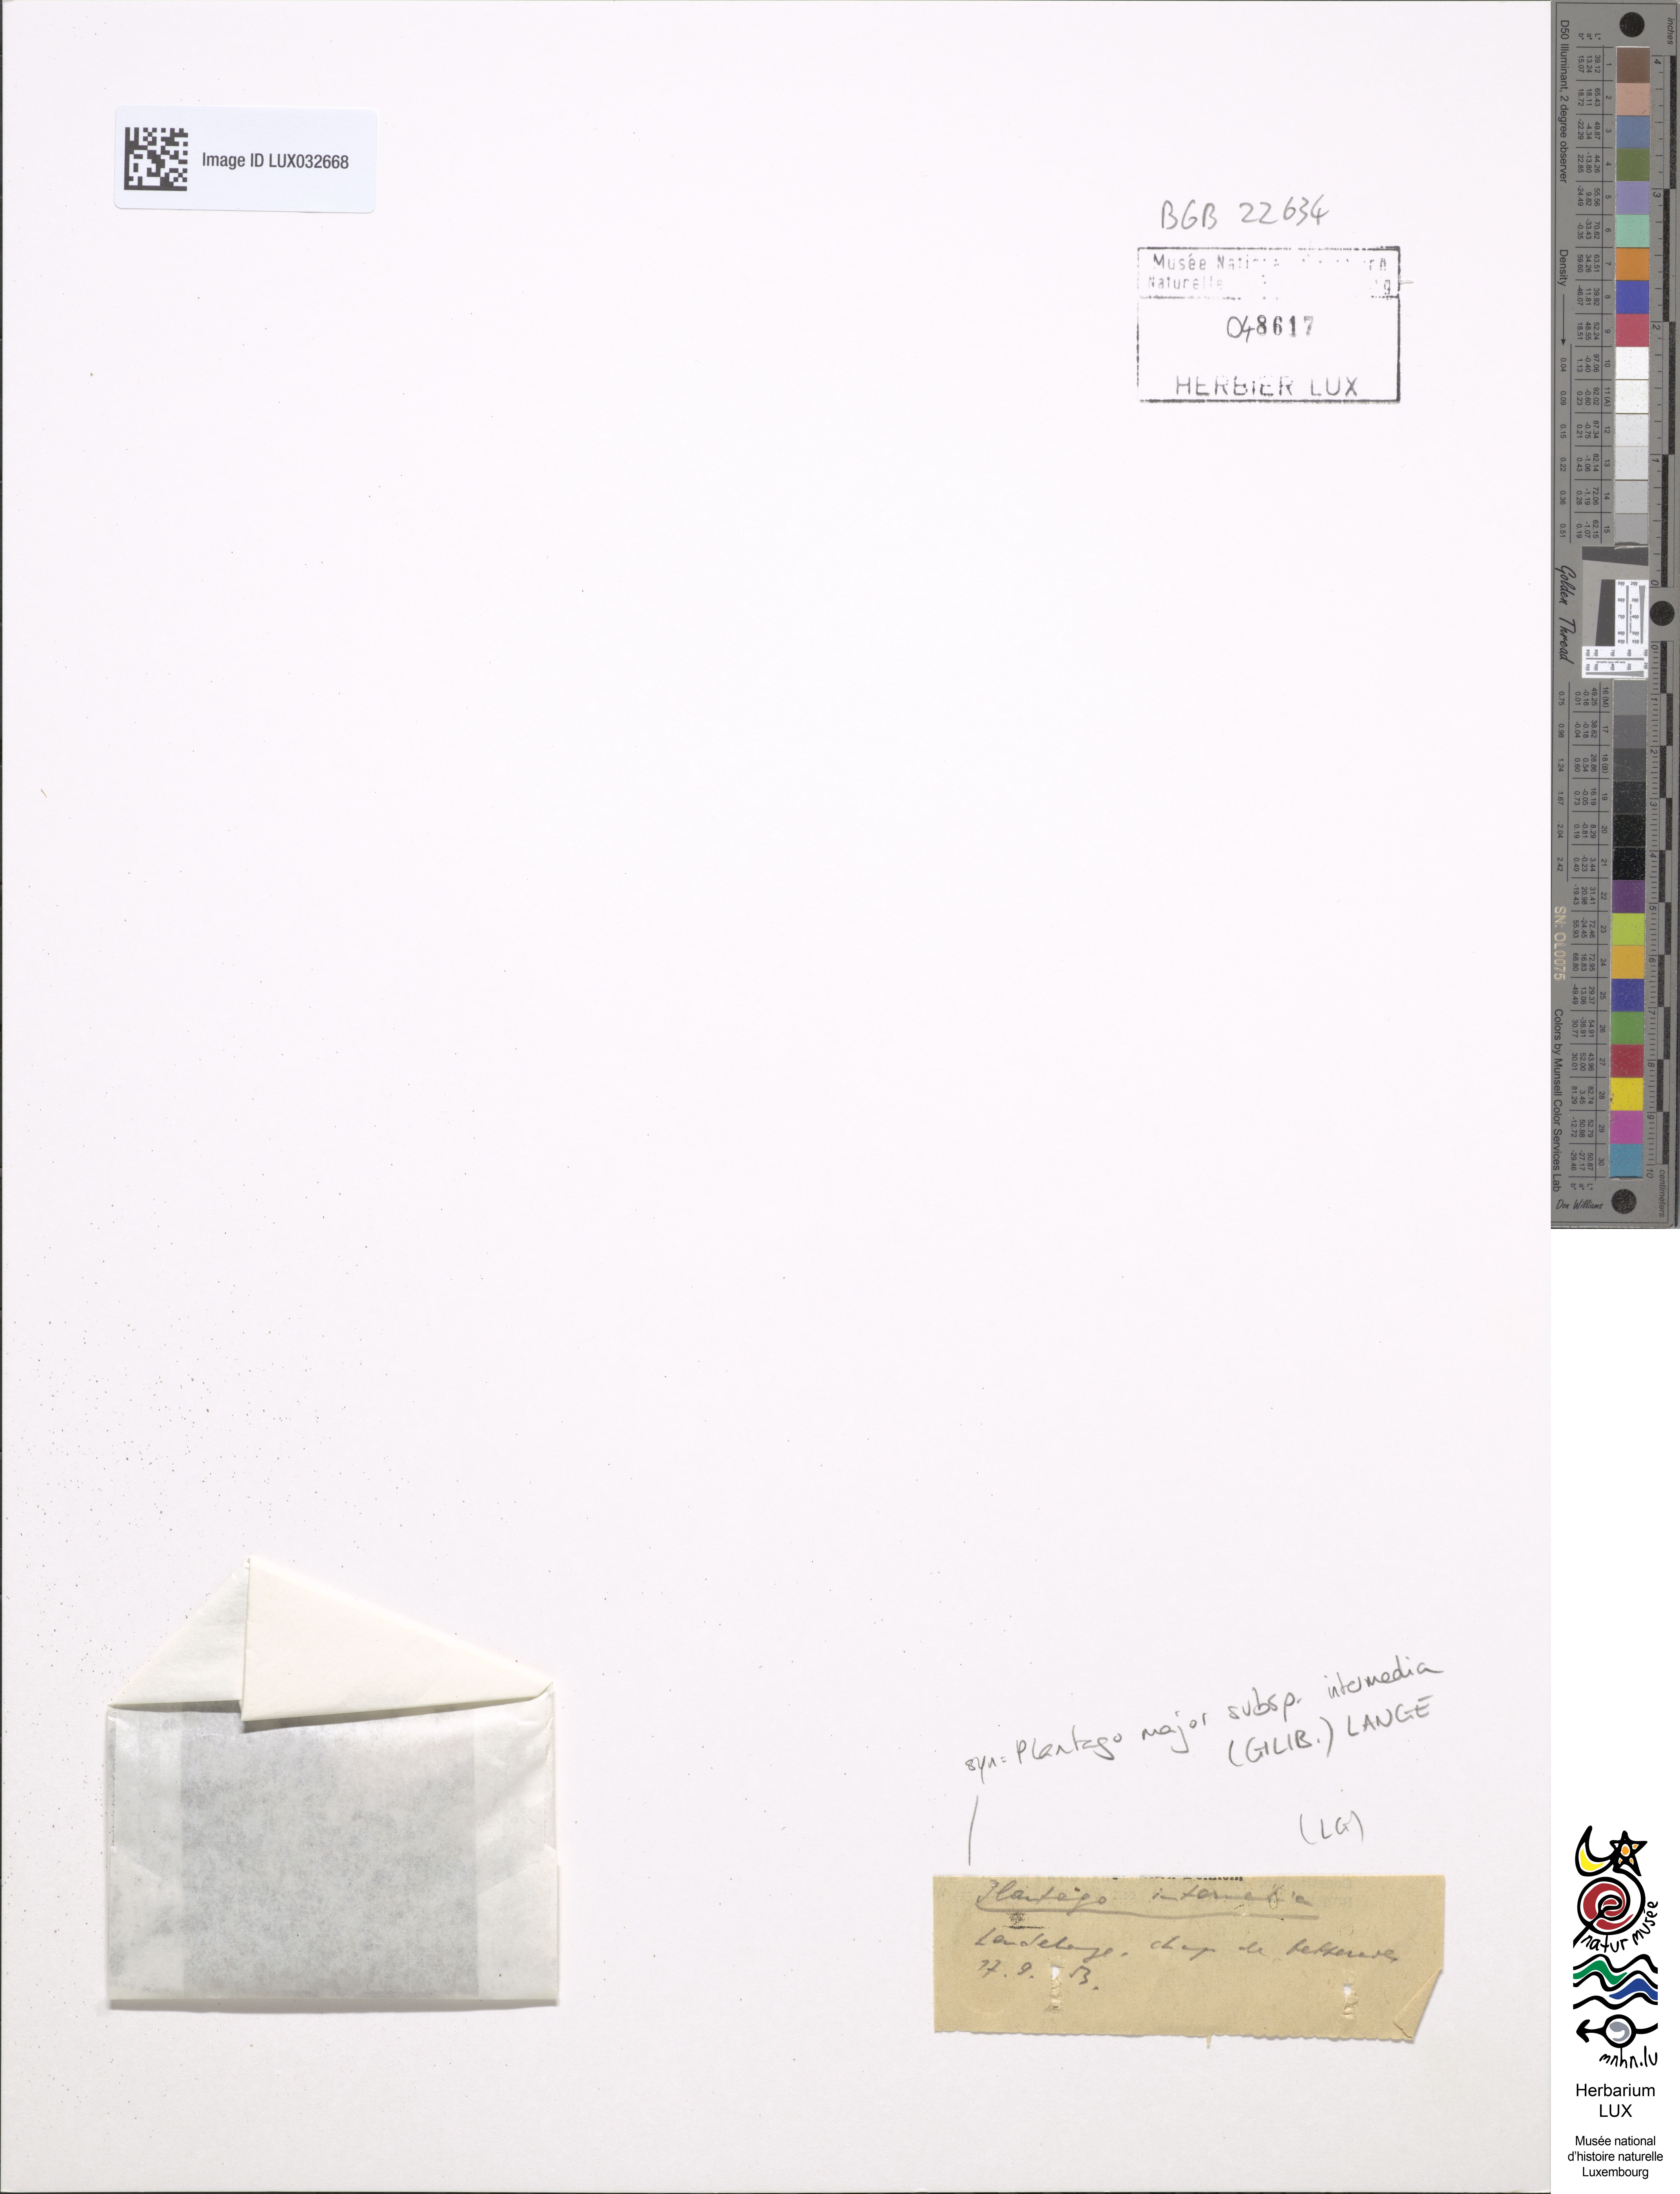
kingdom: Plantae
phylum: Tracheophyta
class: Magnoliopsida
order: Lamiales
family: Plantaginaceae
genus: Plantago
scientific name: Plantago intermedia
